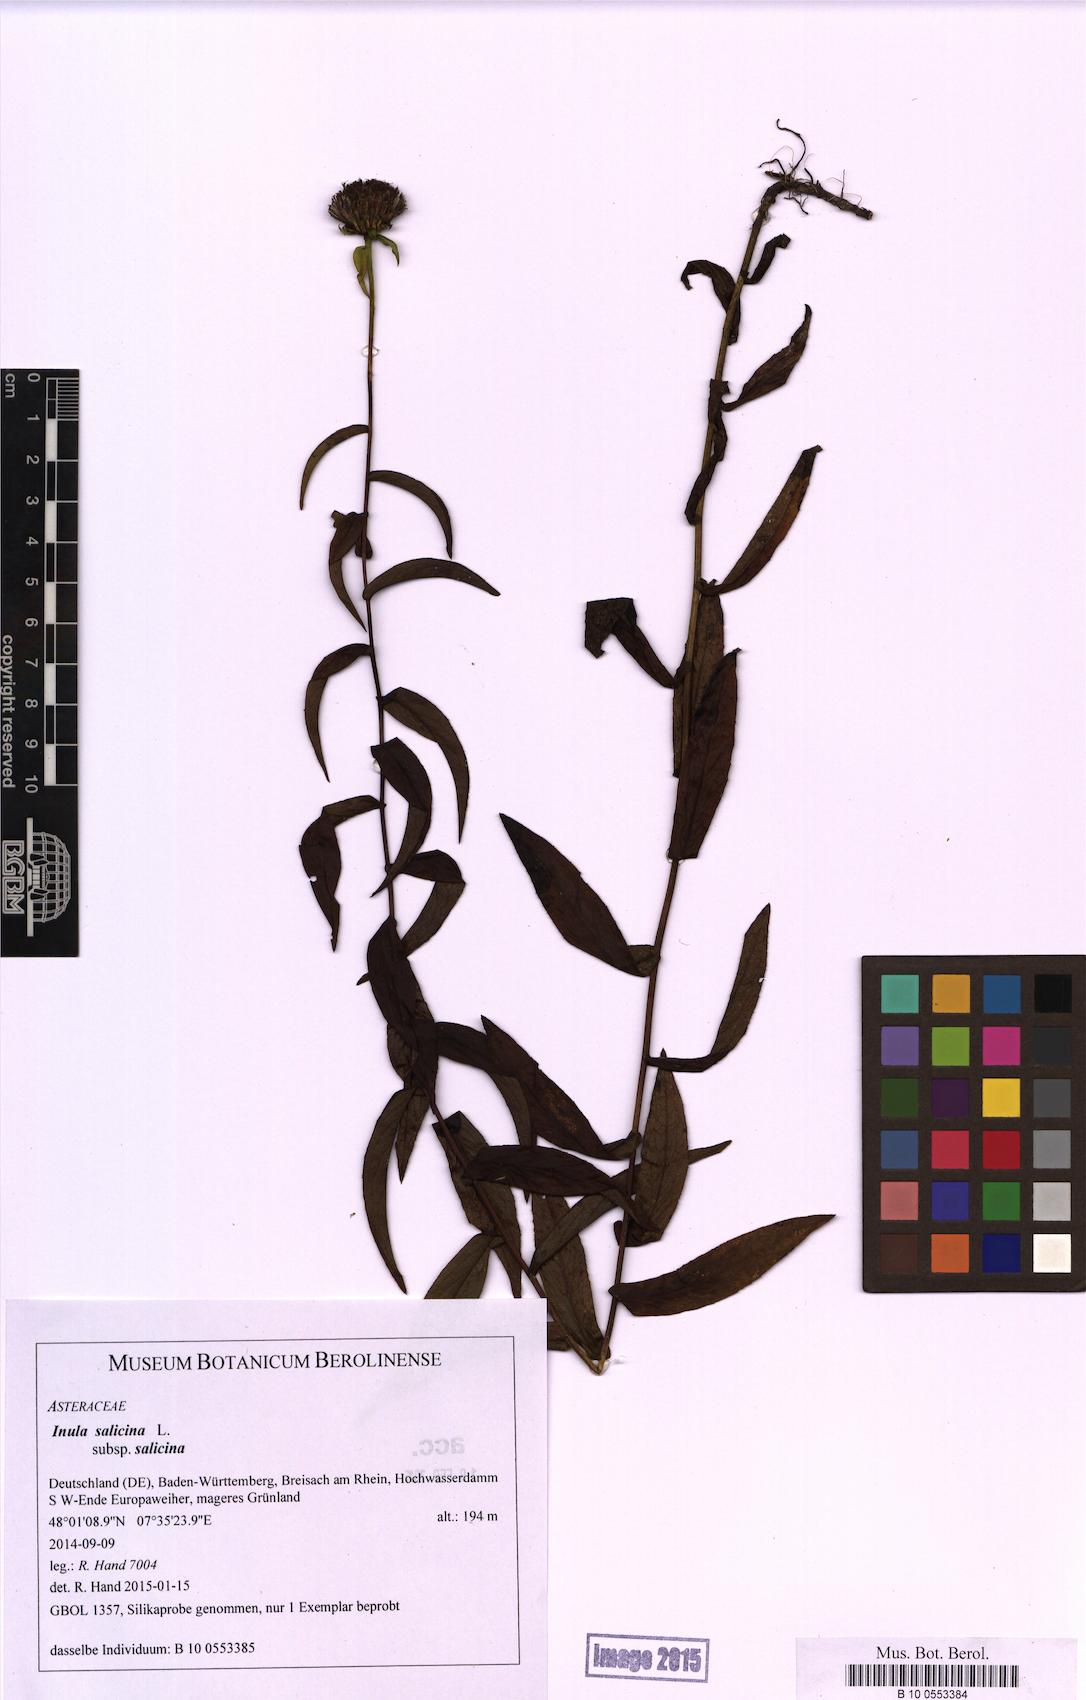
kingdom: Plantae
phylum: Tracheophyta
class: Magnoliopsida
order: Asterales
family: Asteraceae
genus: Pentanema
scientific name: Pentanema salicinum
